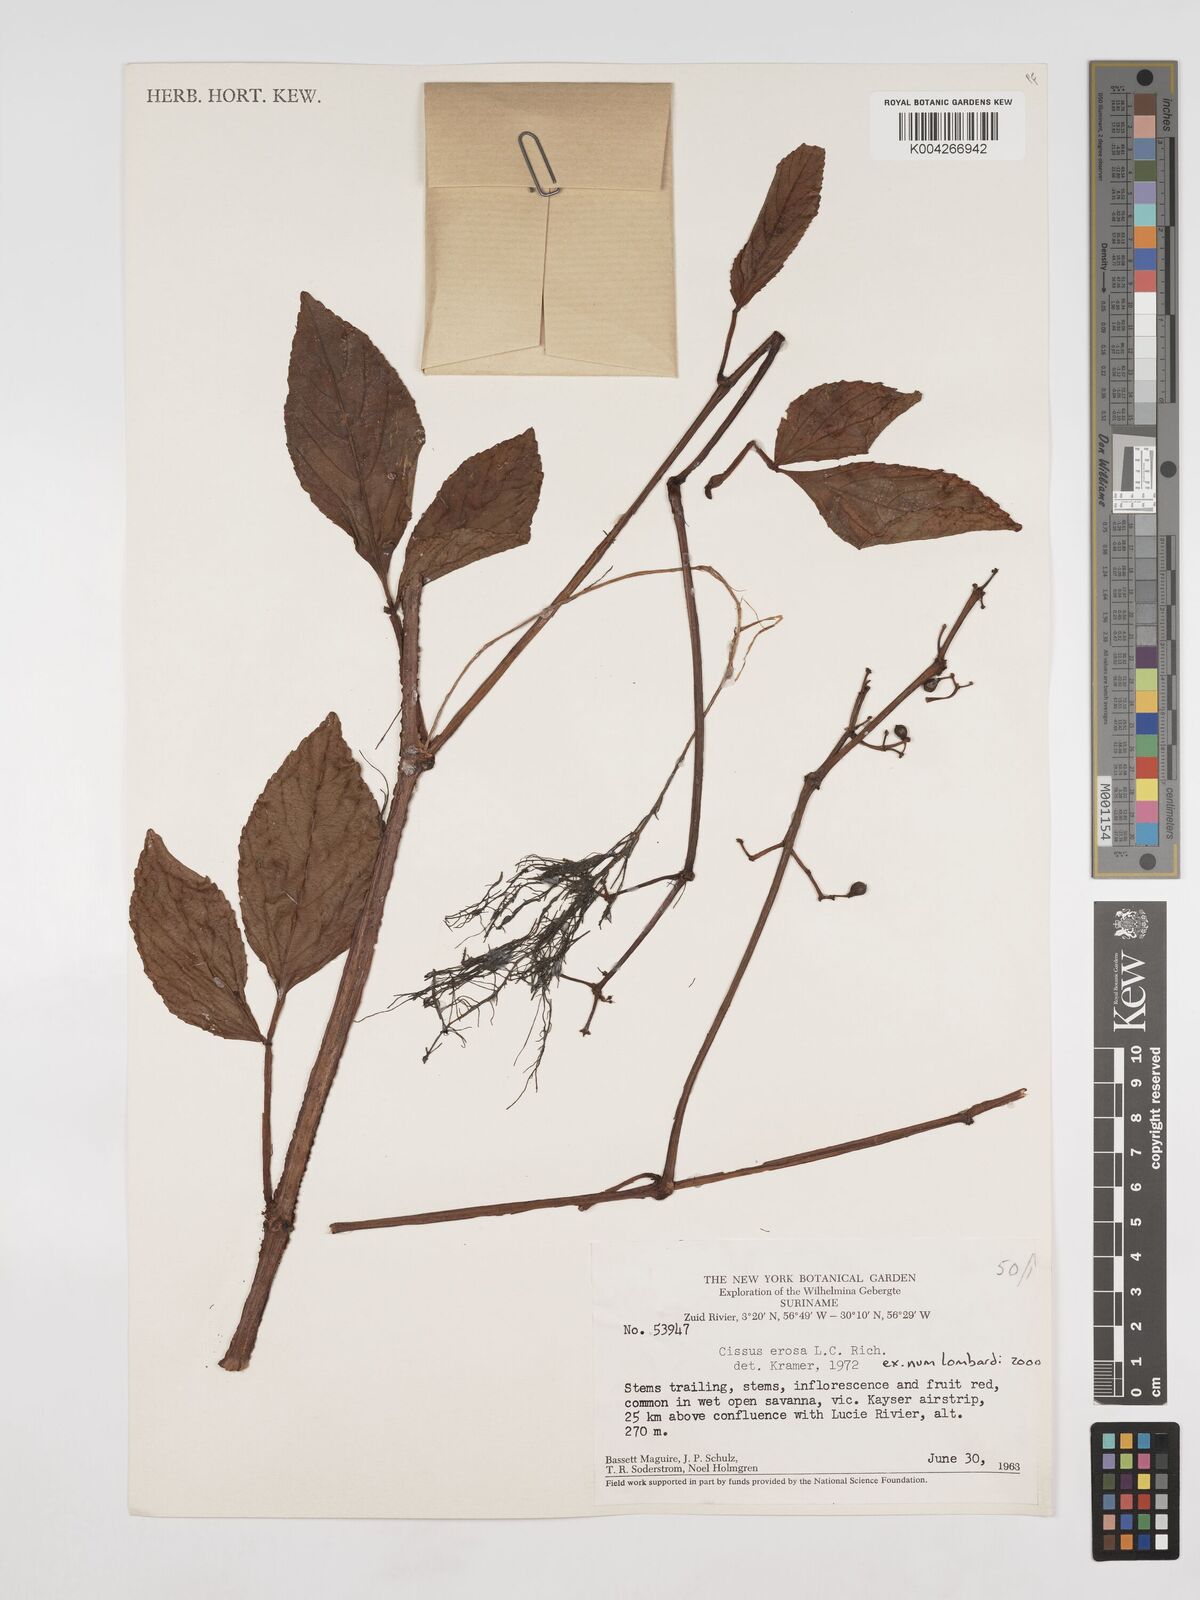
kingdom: Plantae
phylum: Tracheophyta
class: Magnoliopsida
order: Vitales
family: Vitaceae
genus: Cissus
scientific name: Cissus erosa
